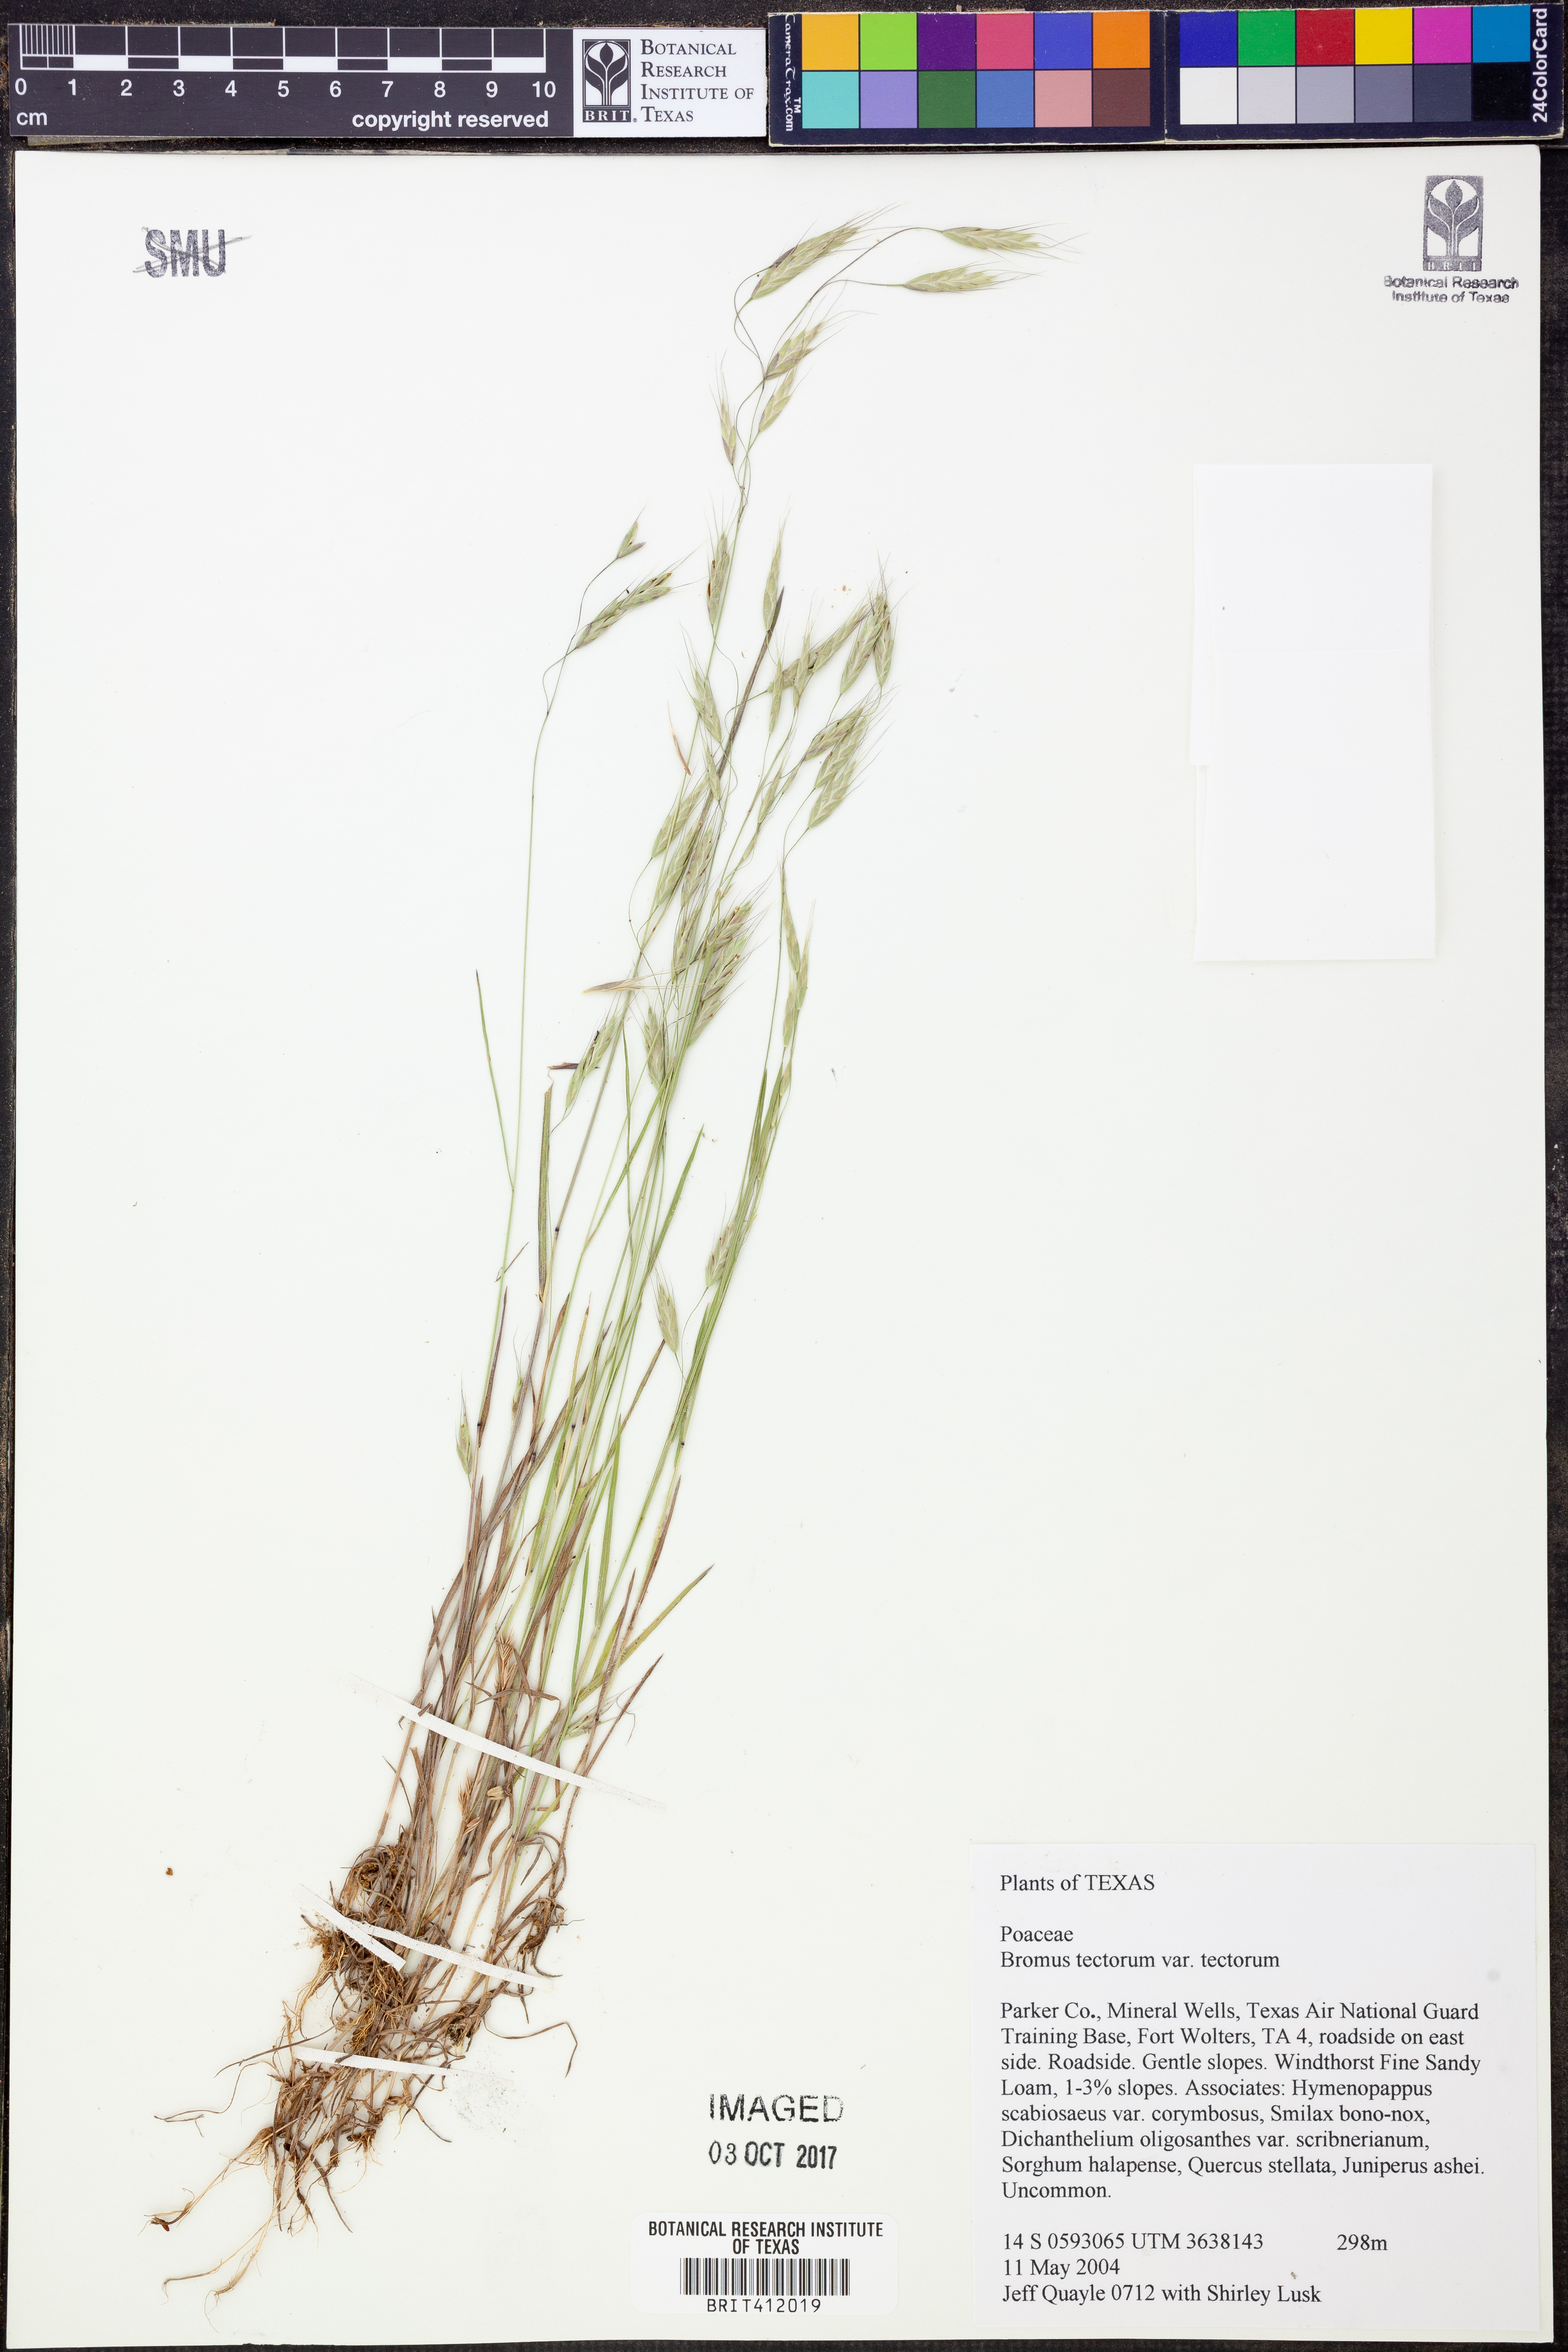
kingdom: Plantae
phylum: Tracheophyta
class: Liliopsida
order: Poales
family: Poaceae
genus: Bromus
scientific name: Bromus tectorum
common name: Cheatgrass
